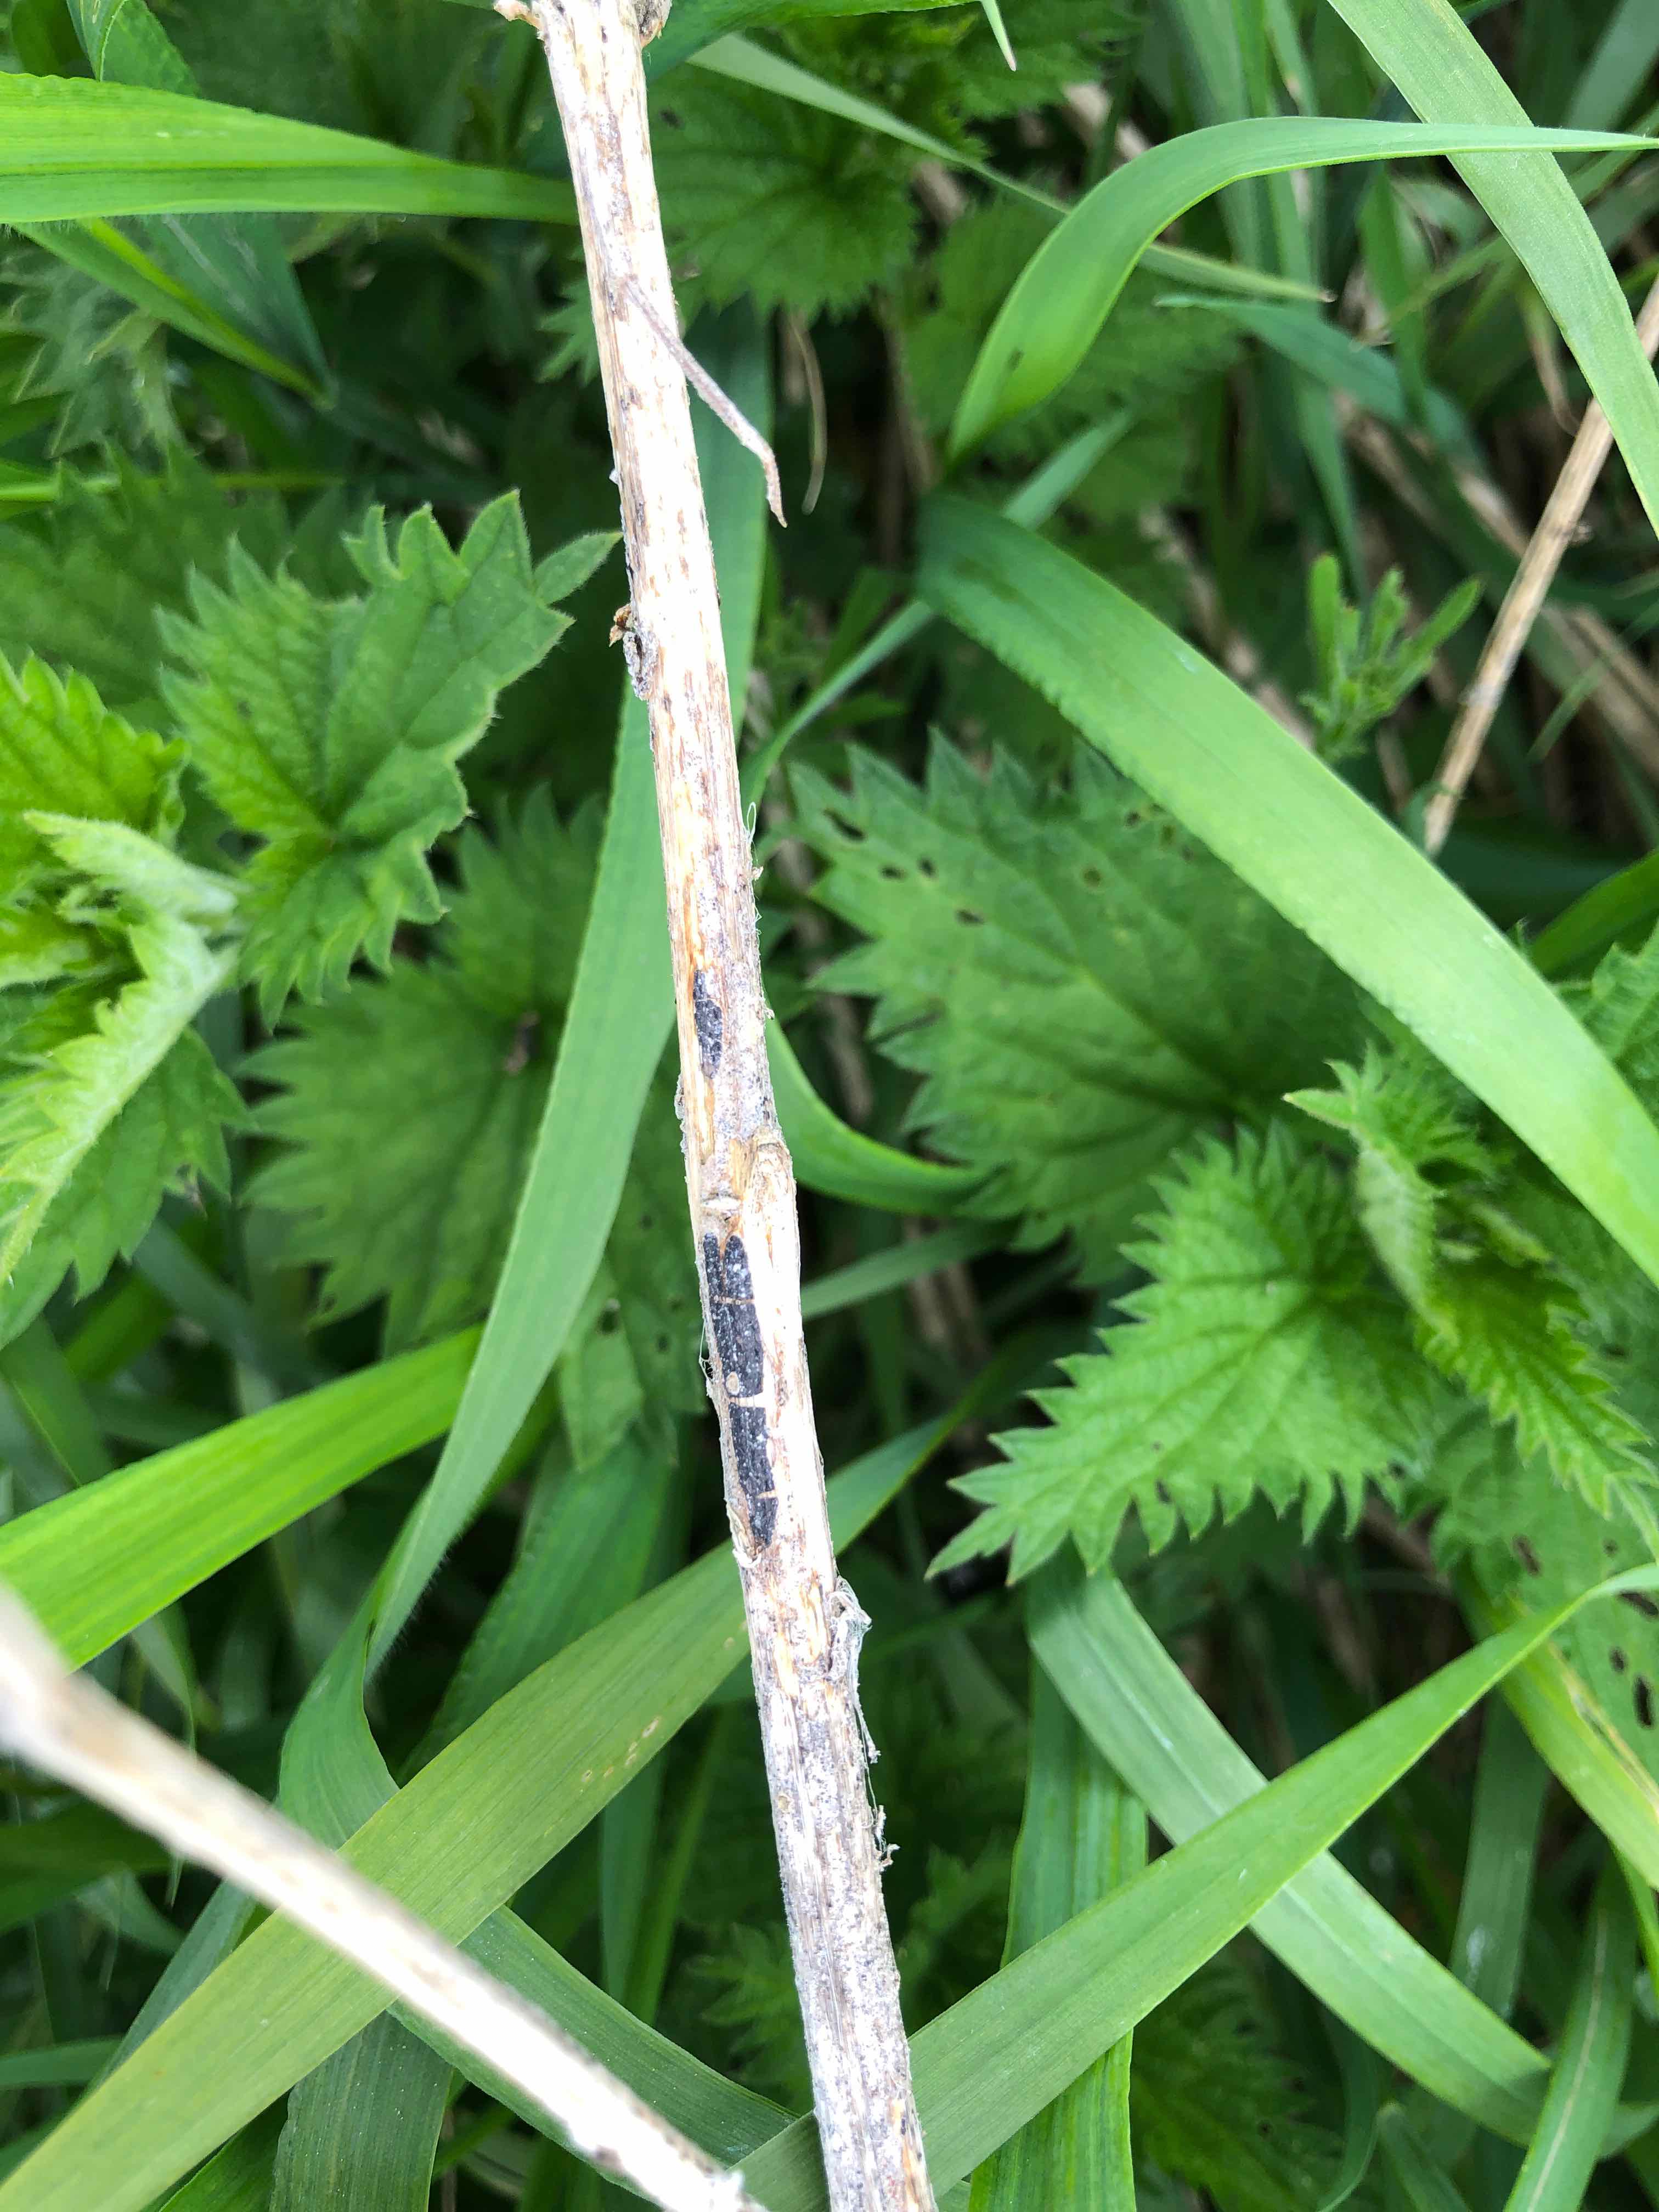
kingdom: Fungi
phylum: Ascomycota
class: Sordariomycetes
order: Diaporthales
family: Diaporthaceae
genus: Diaporthopsis
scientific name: Diaporthopsis urticae
